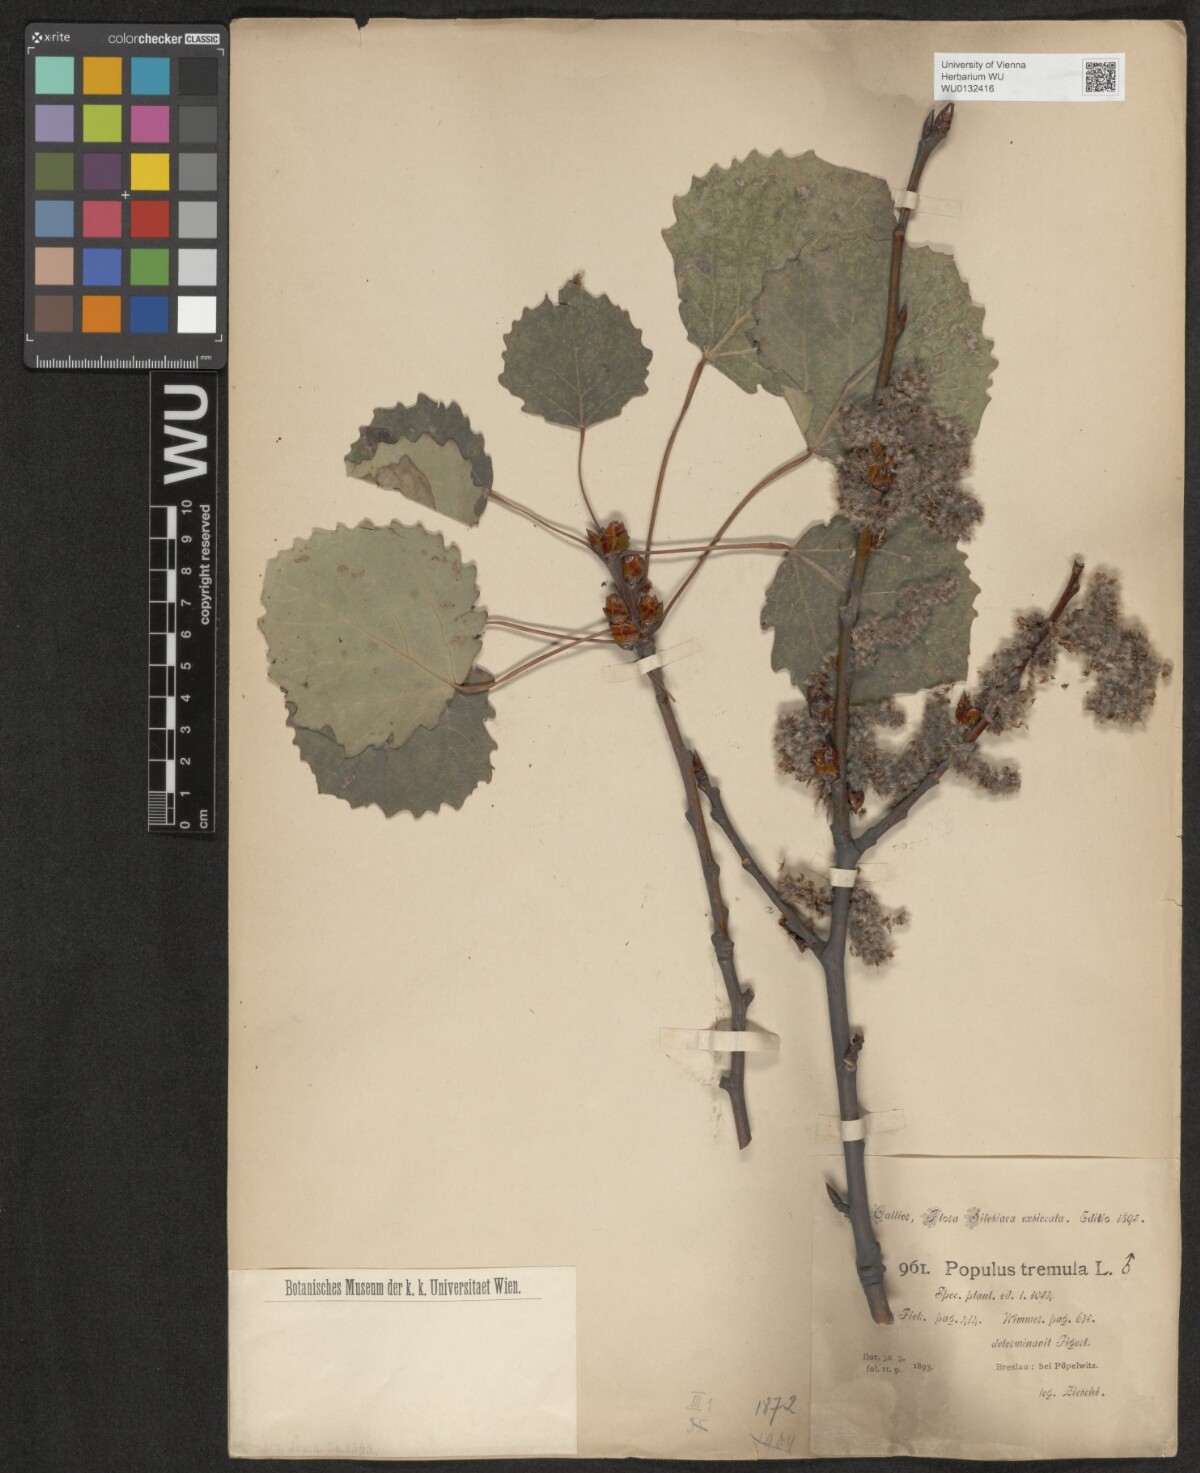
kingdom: Plantae
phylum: Tracheophyta
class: Magnoliopsida
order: Malpighiales
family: Salicaceae
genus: Populus
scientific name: Populus tremula
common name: European aspen
